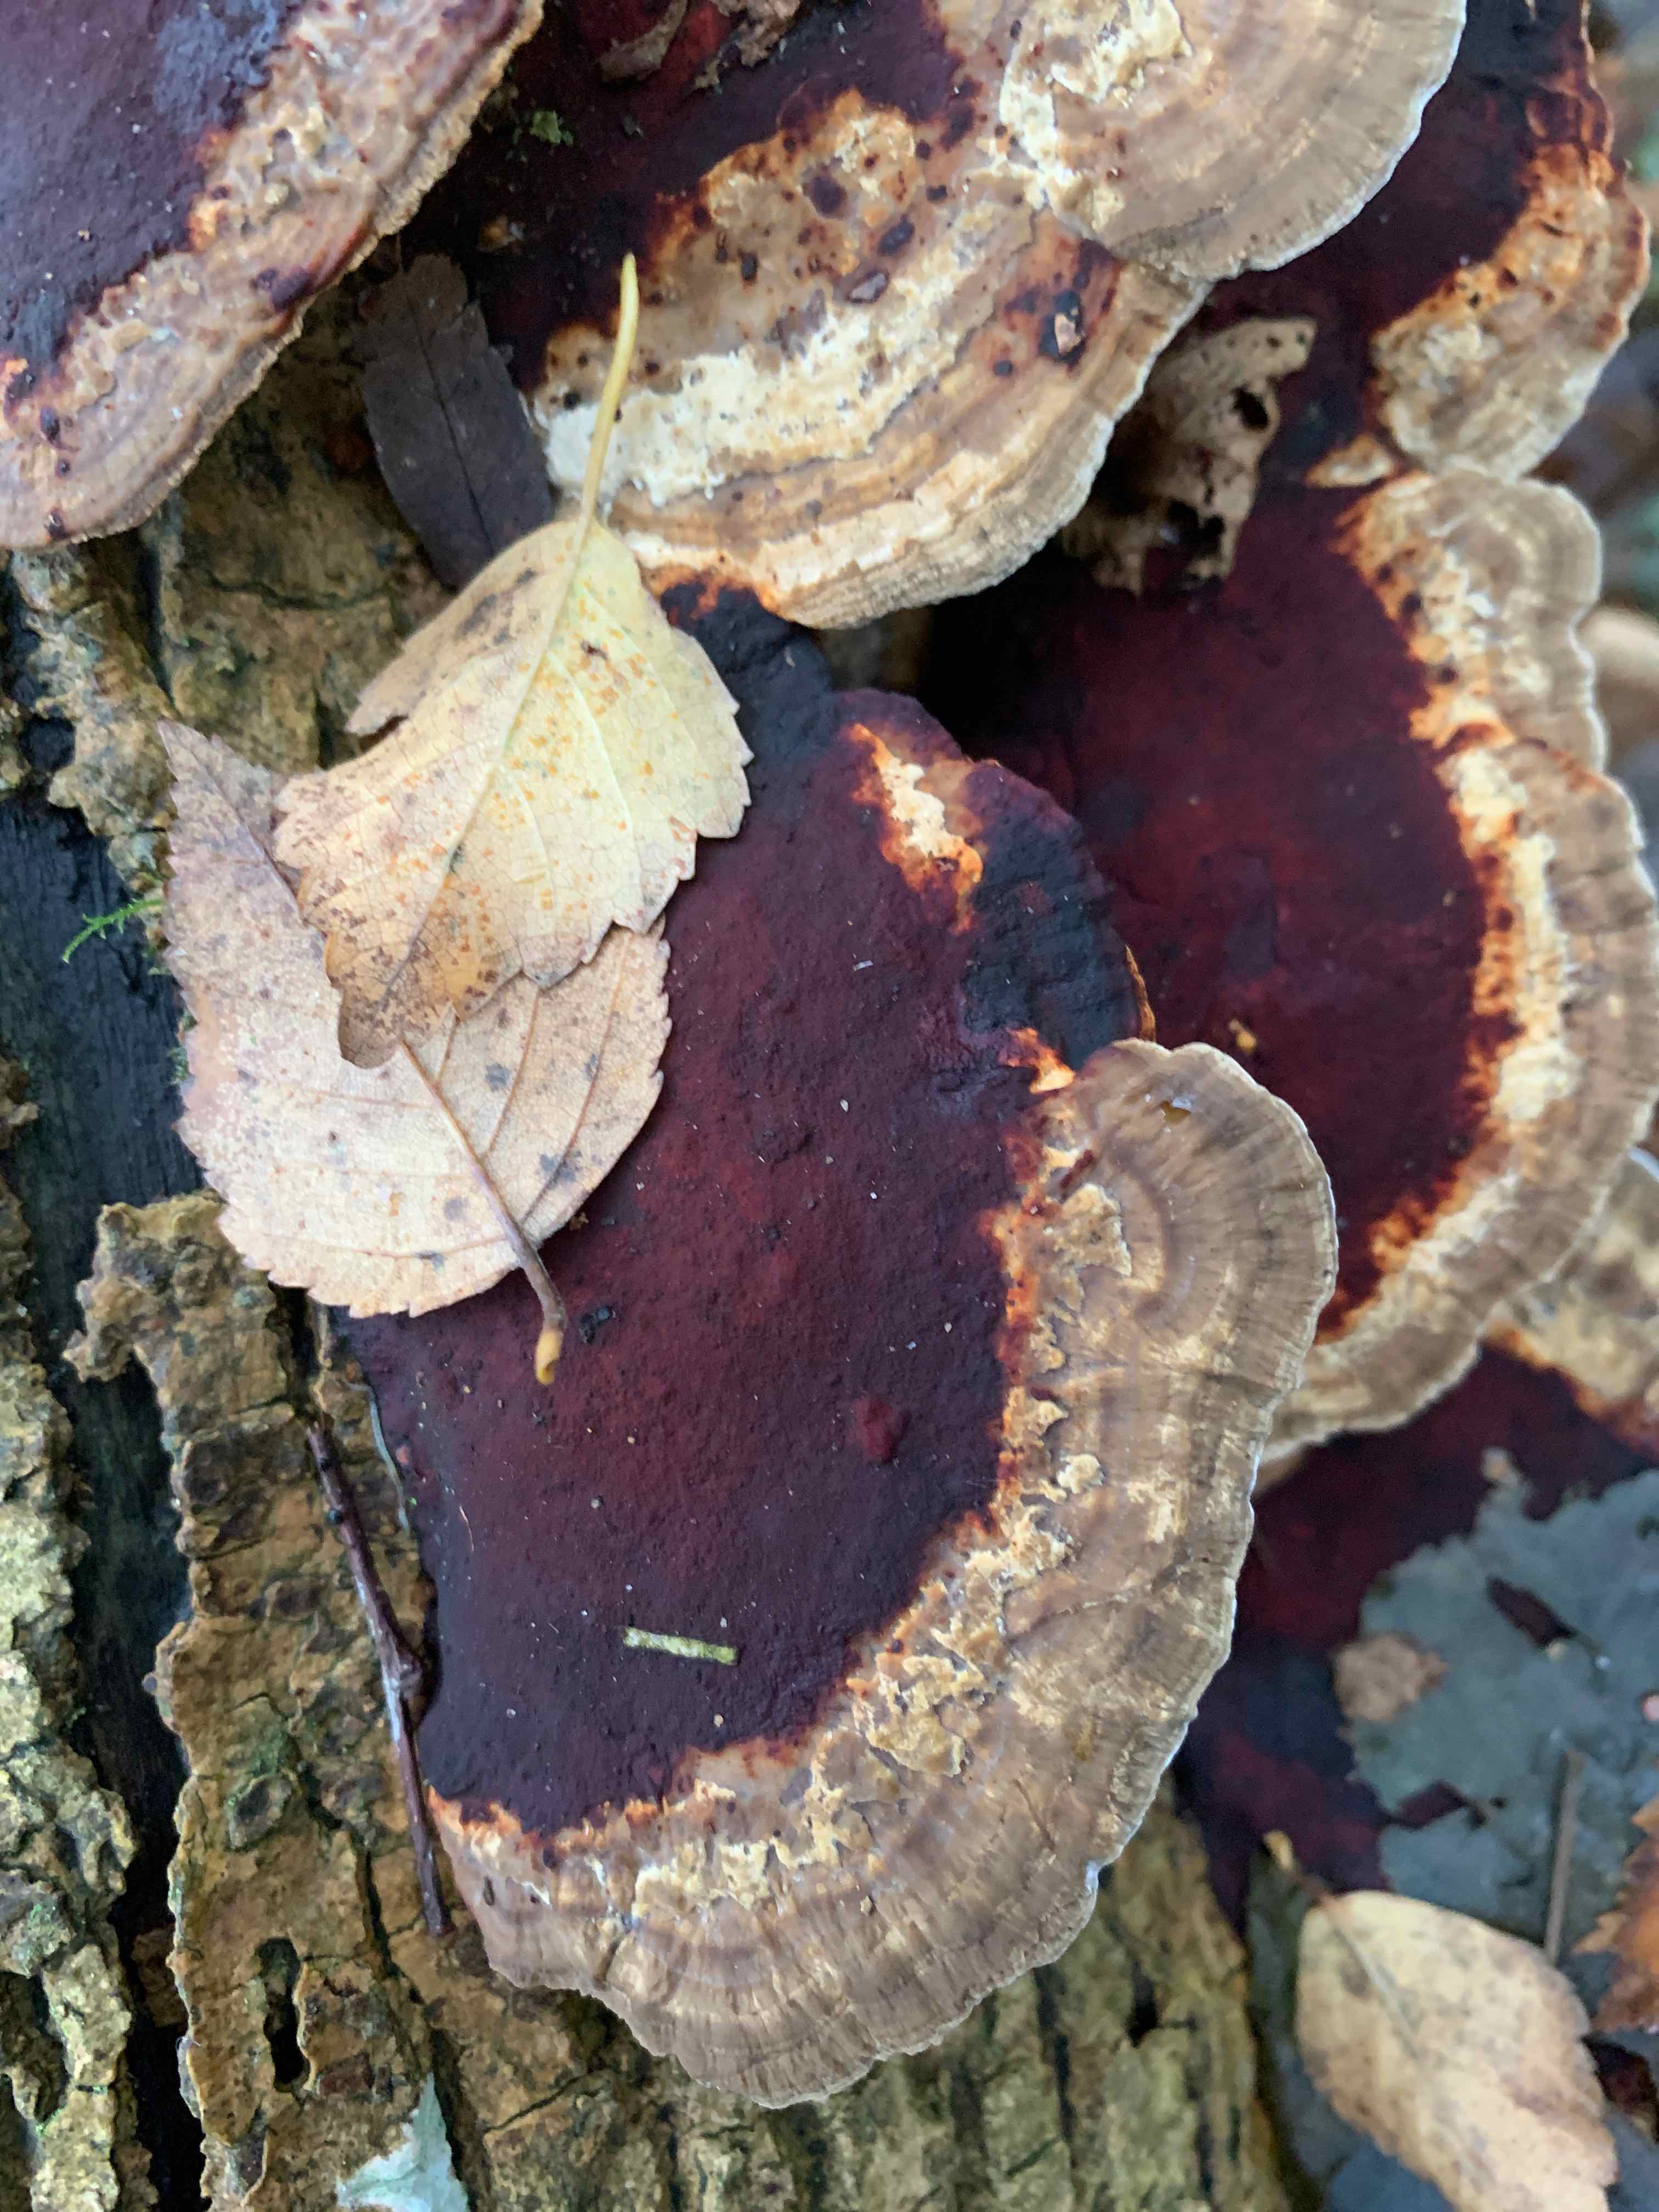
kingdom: Fungi
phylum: Basidiomycota
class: Agaricomycetes
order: Polyporales
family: Polyporaceae
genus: Daedaleopsis
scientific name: Daedaleopsis confragosa
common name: rødmende læderporesvamp
